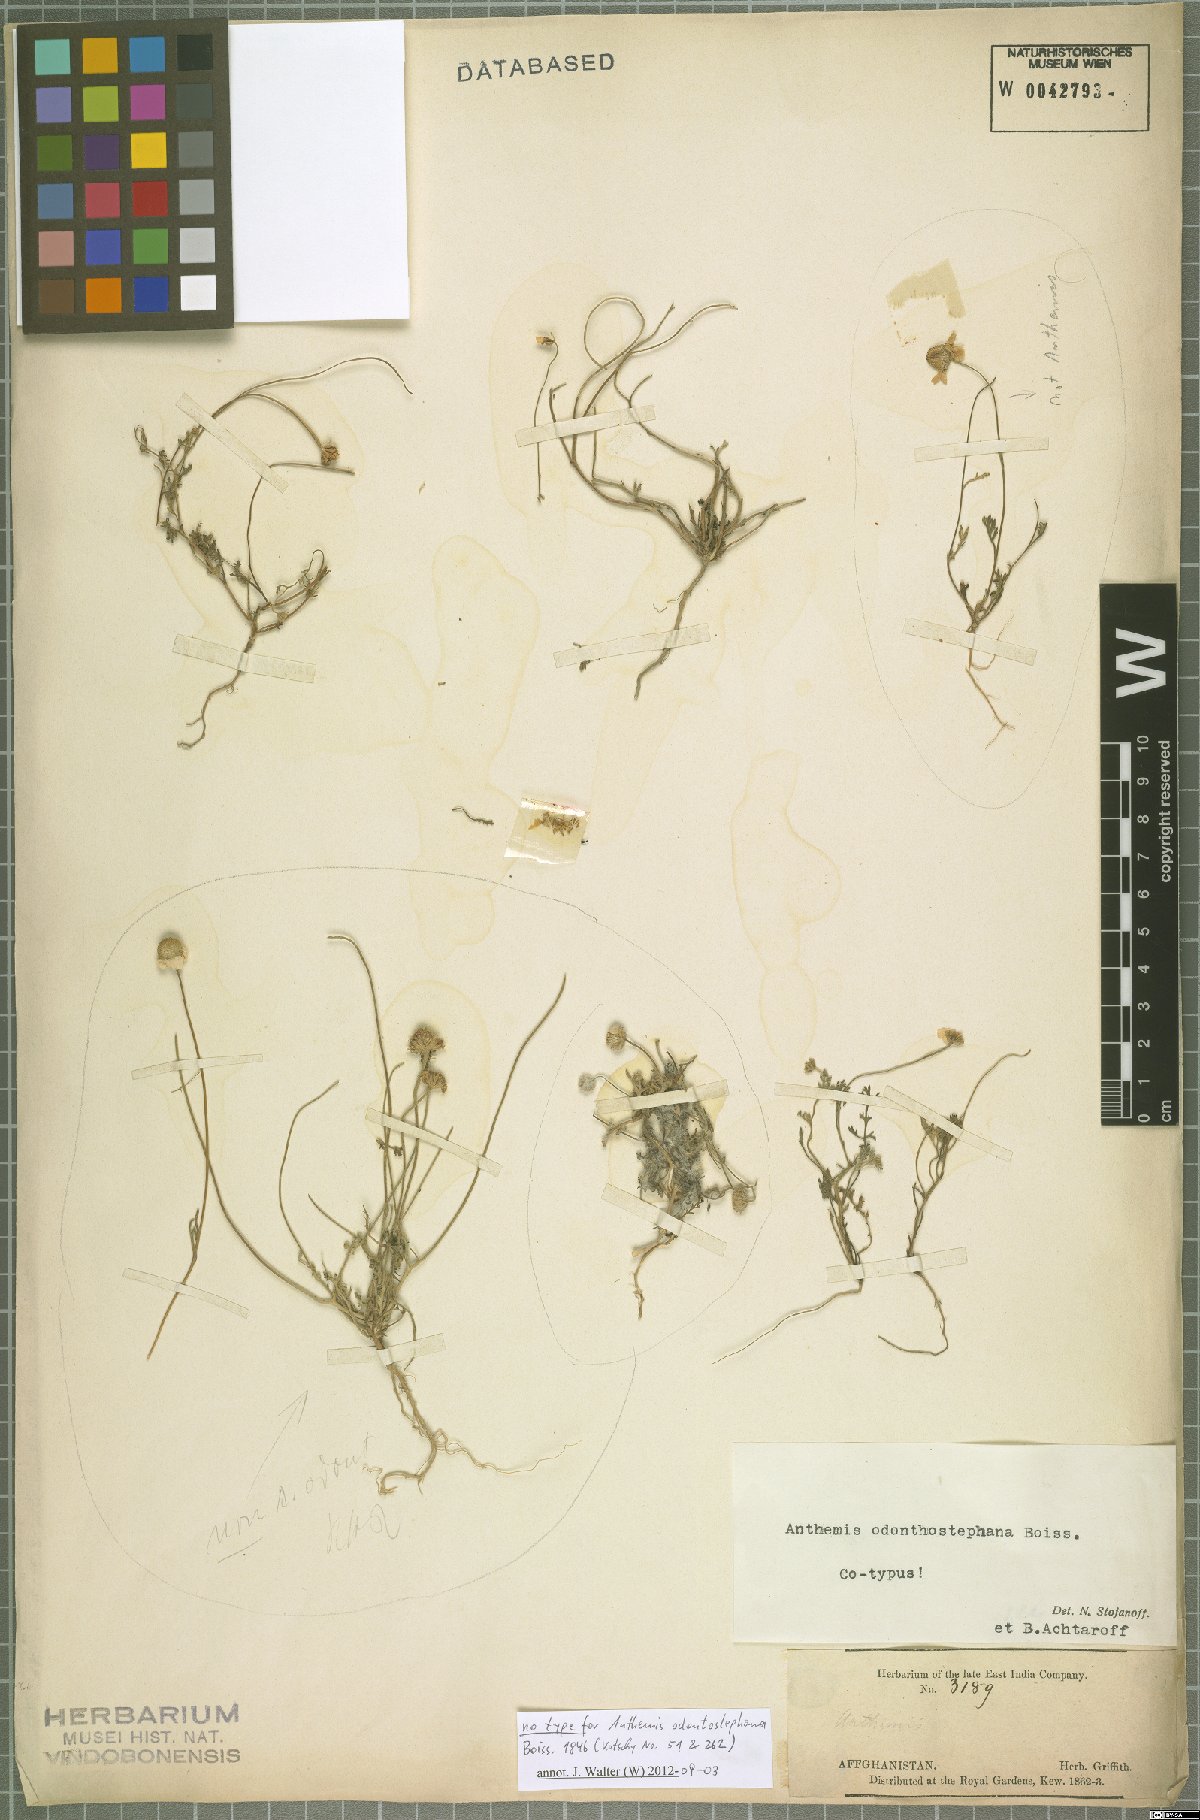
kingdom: Plantae
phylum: Tracheophyta
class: Magnoliopsida
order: Asterales
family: Asteraceae
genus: Anthemis
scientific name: Anthemis odontostephana
